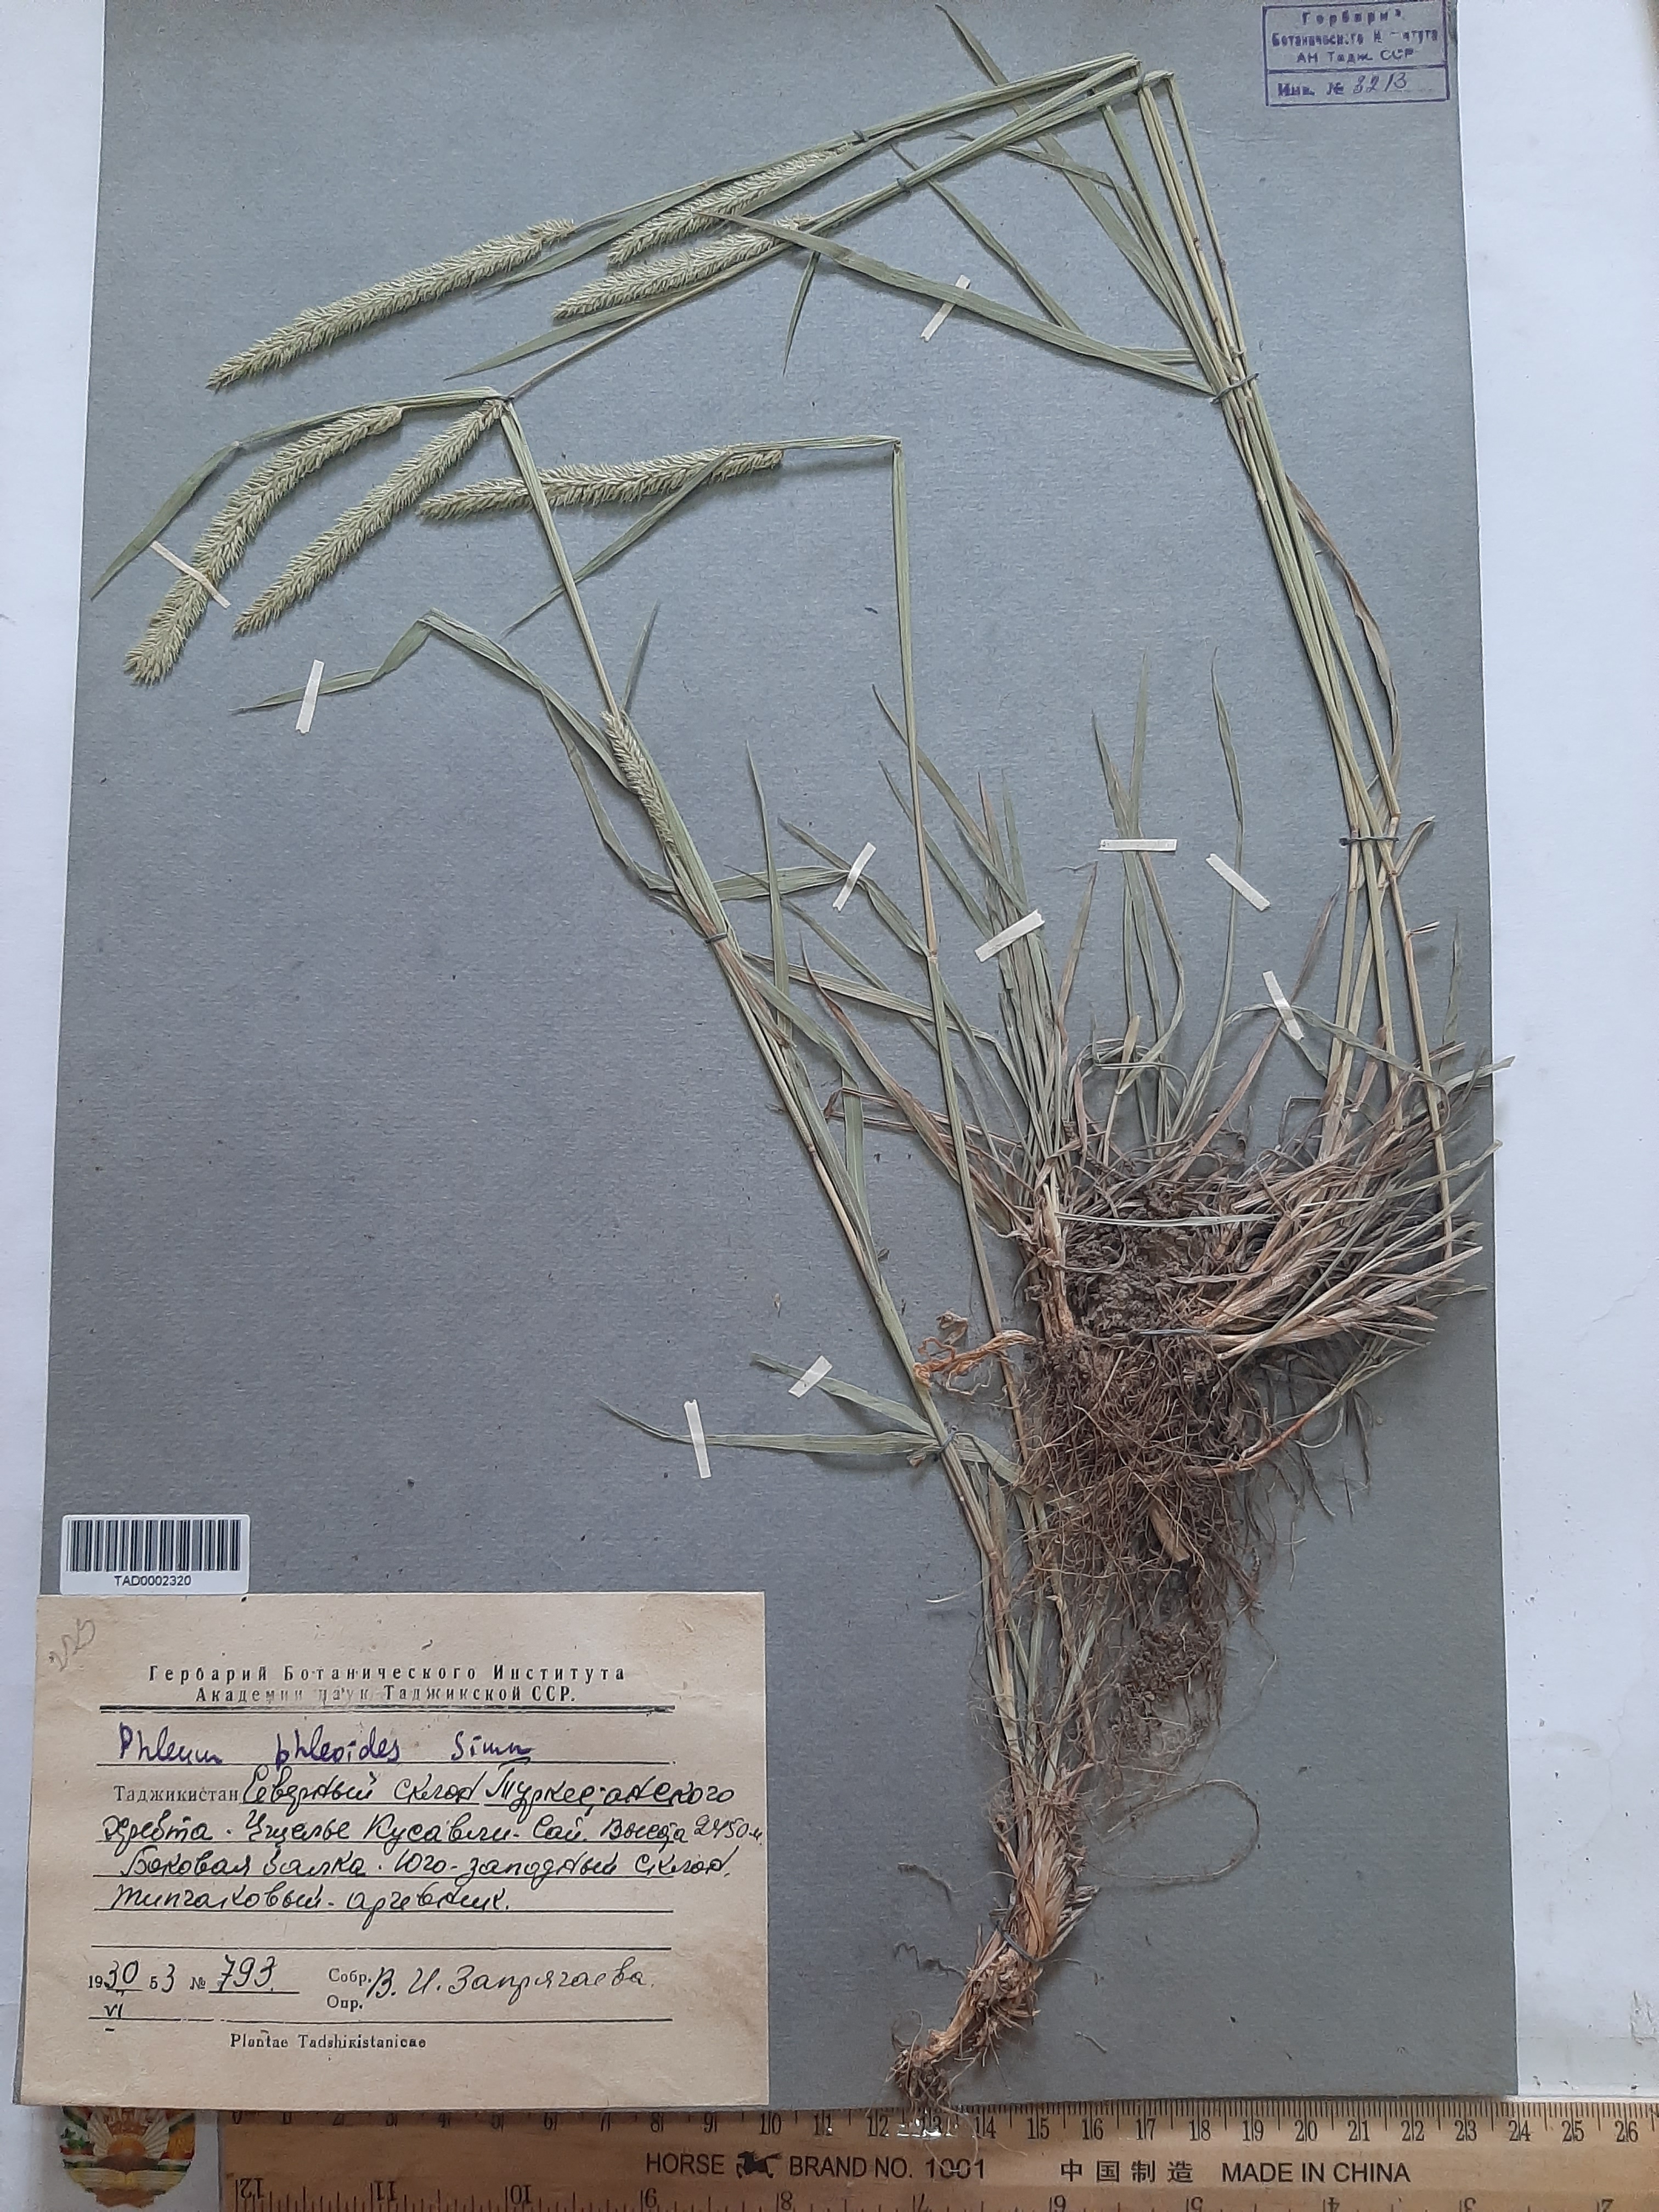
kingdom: Plantae
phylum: Tracheophyta
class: Liliopsida
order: Poales
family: Poaceae
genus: Phleum
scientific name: Phleum phleoides
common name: Purple-stem cat's-tail
